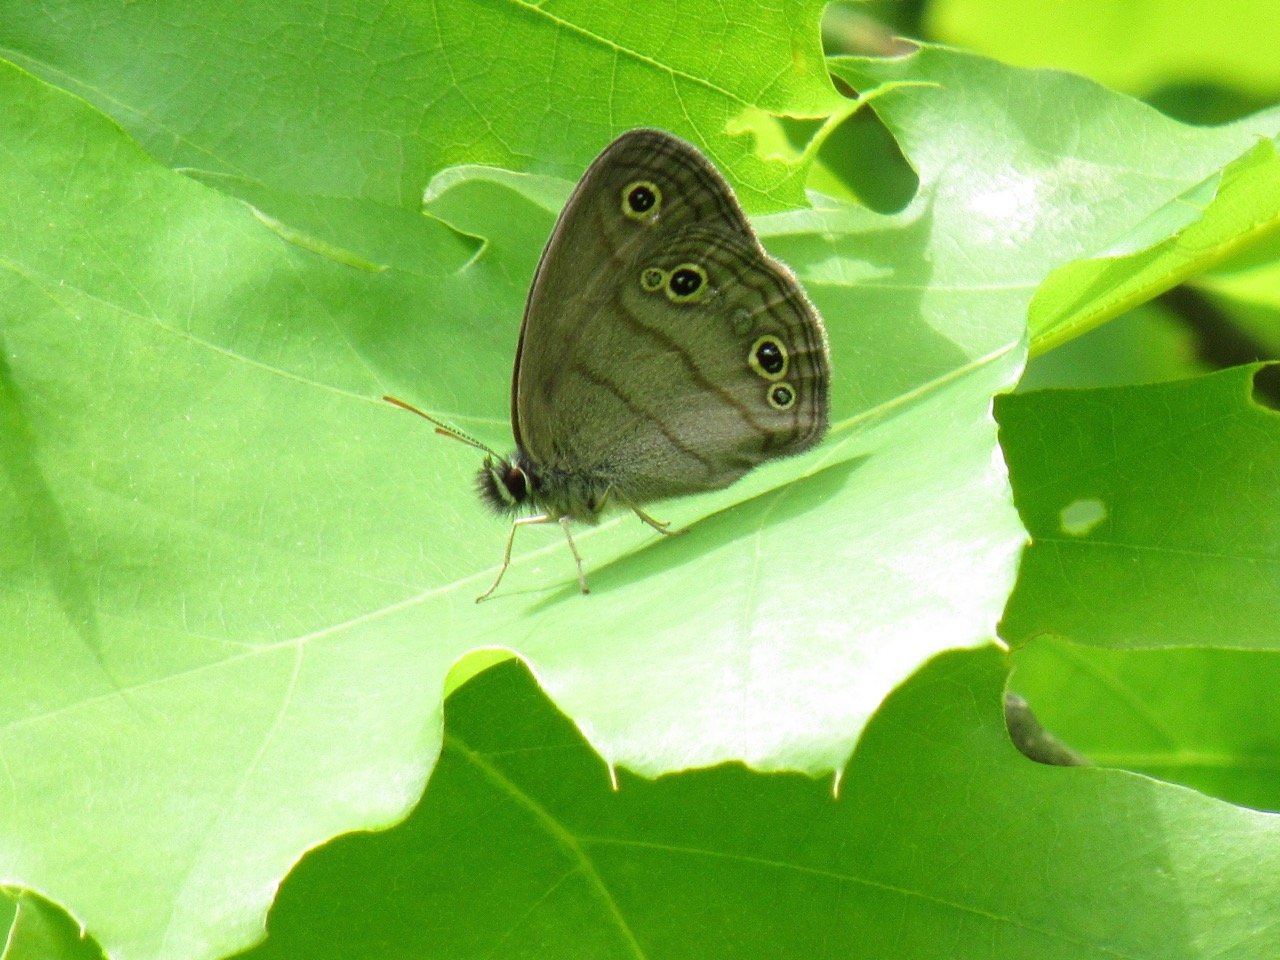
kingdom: Animalia
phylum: Arthropoda
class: Insecta
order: Lepidoptera
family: Nymphalidae
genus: Euptychia
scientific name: Euptychia cymela
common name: Little Wood Satyr
